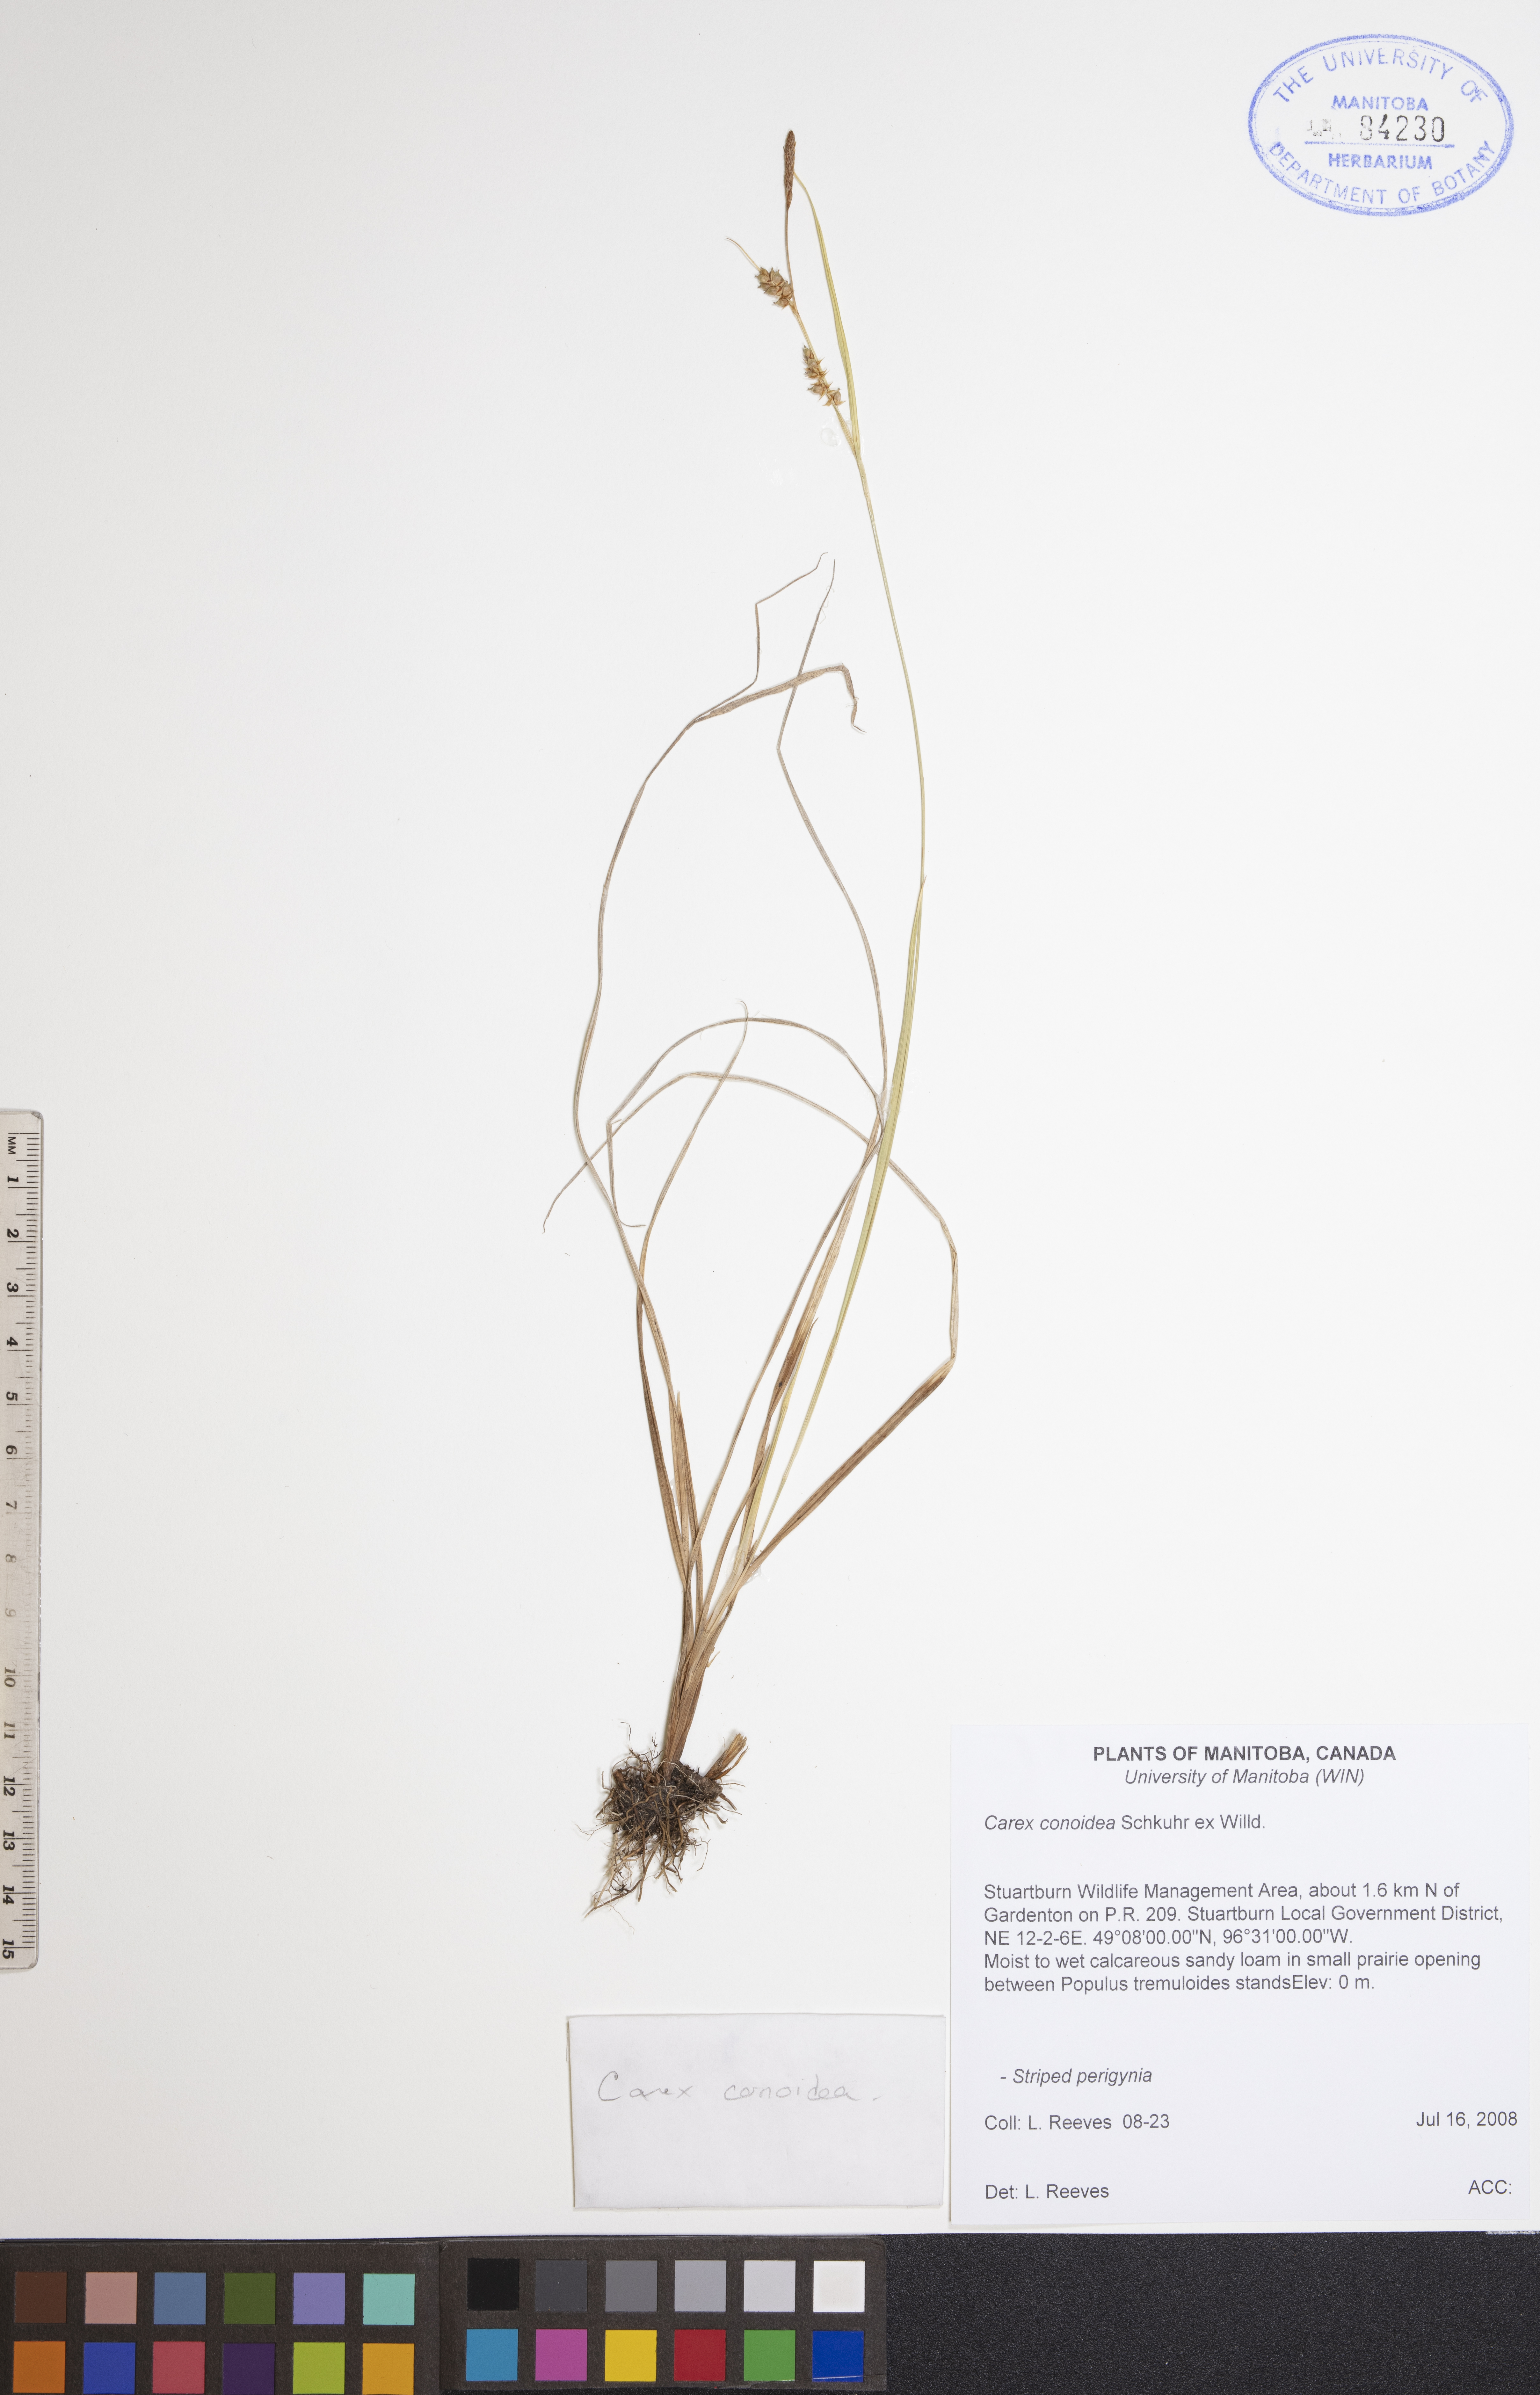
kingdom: Plantae
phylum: Tracheophyta
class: Liliopsida
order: Poales
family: Cyperaceae
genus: Carex
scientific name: Carex conoidea
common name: Cone shaped sedge
